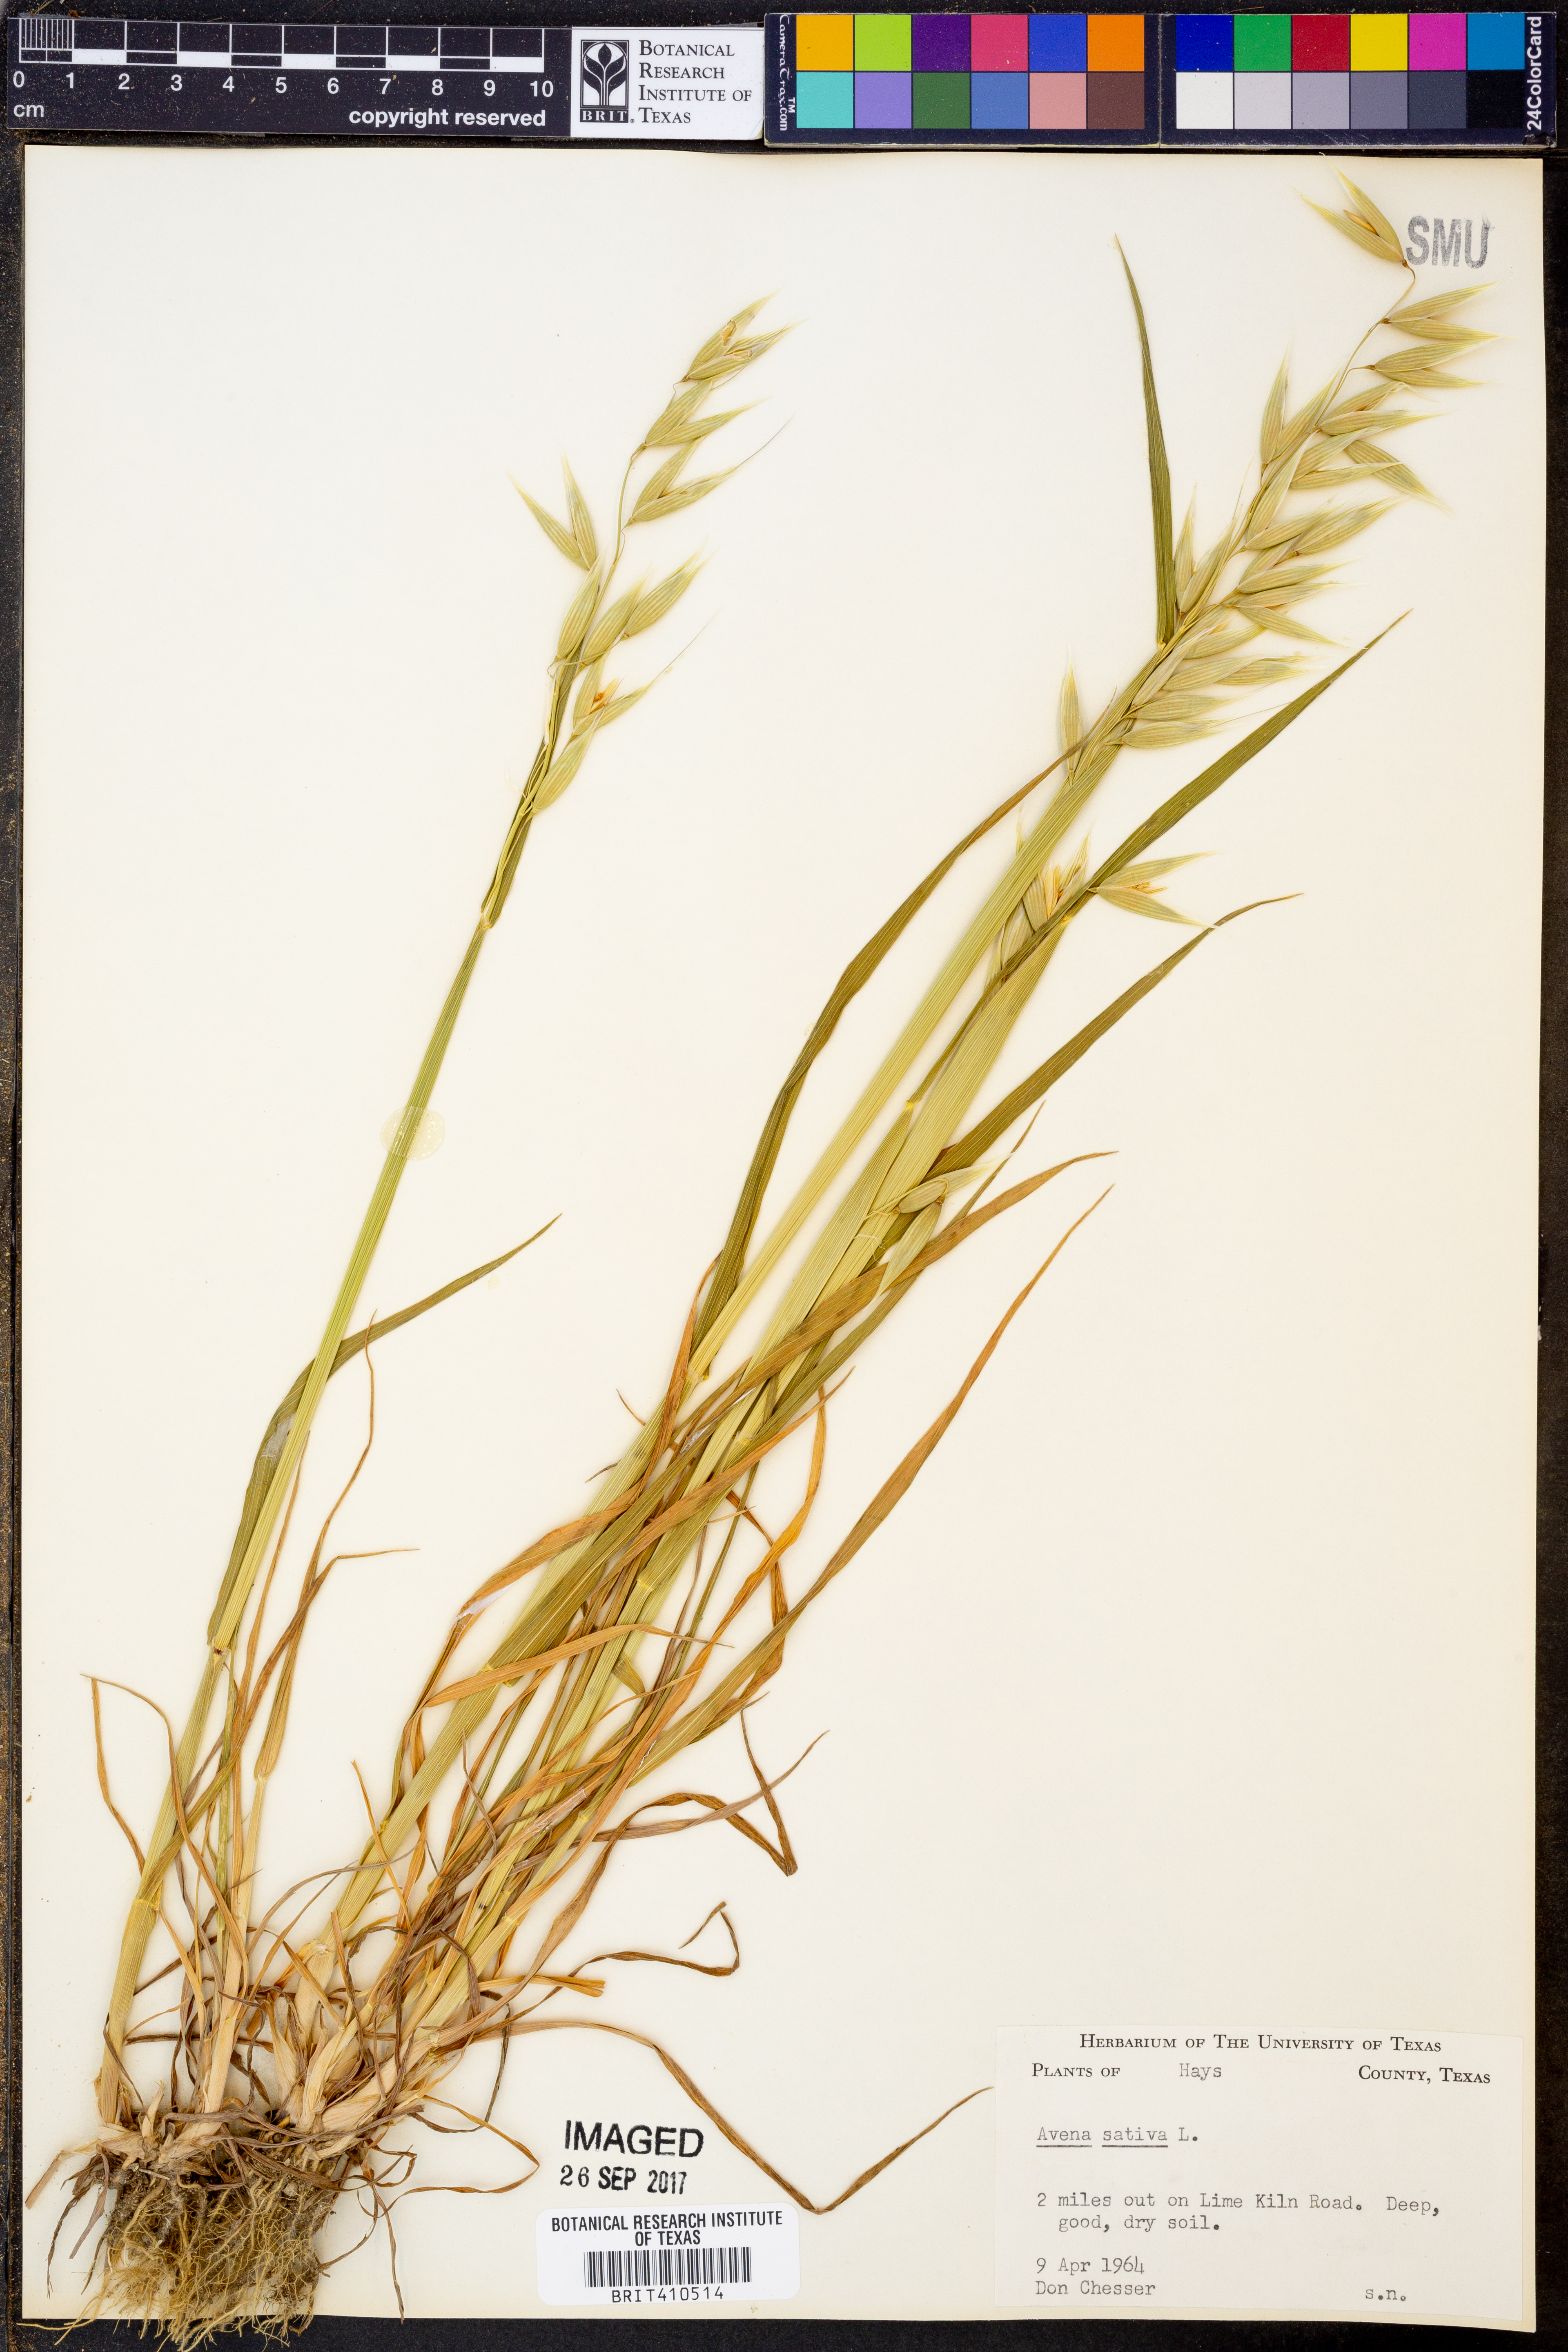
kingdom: Plantae
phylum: Tracheophyta
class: Liliopsida
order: Poales
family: Poaceae
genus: Avena
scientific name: Avena sativa
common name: Oat
